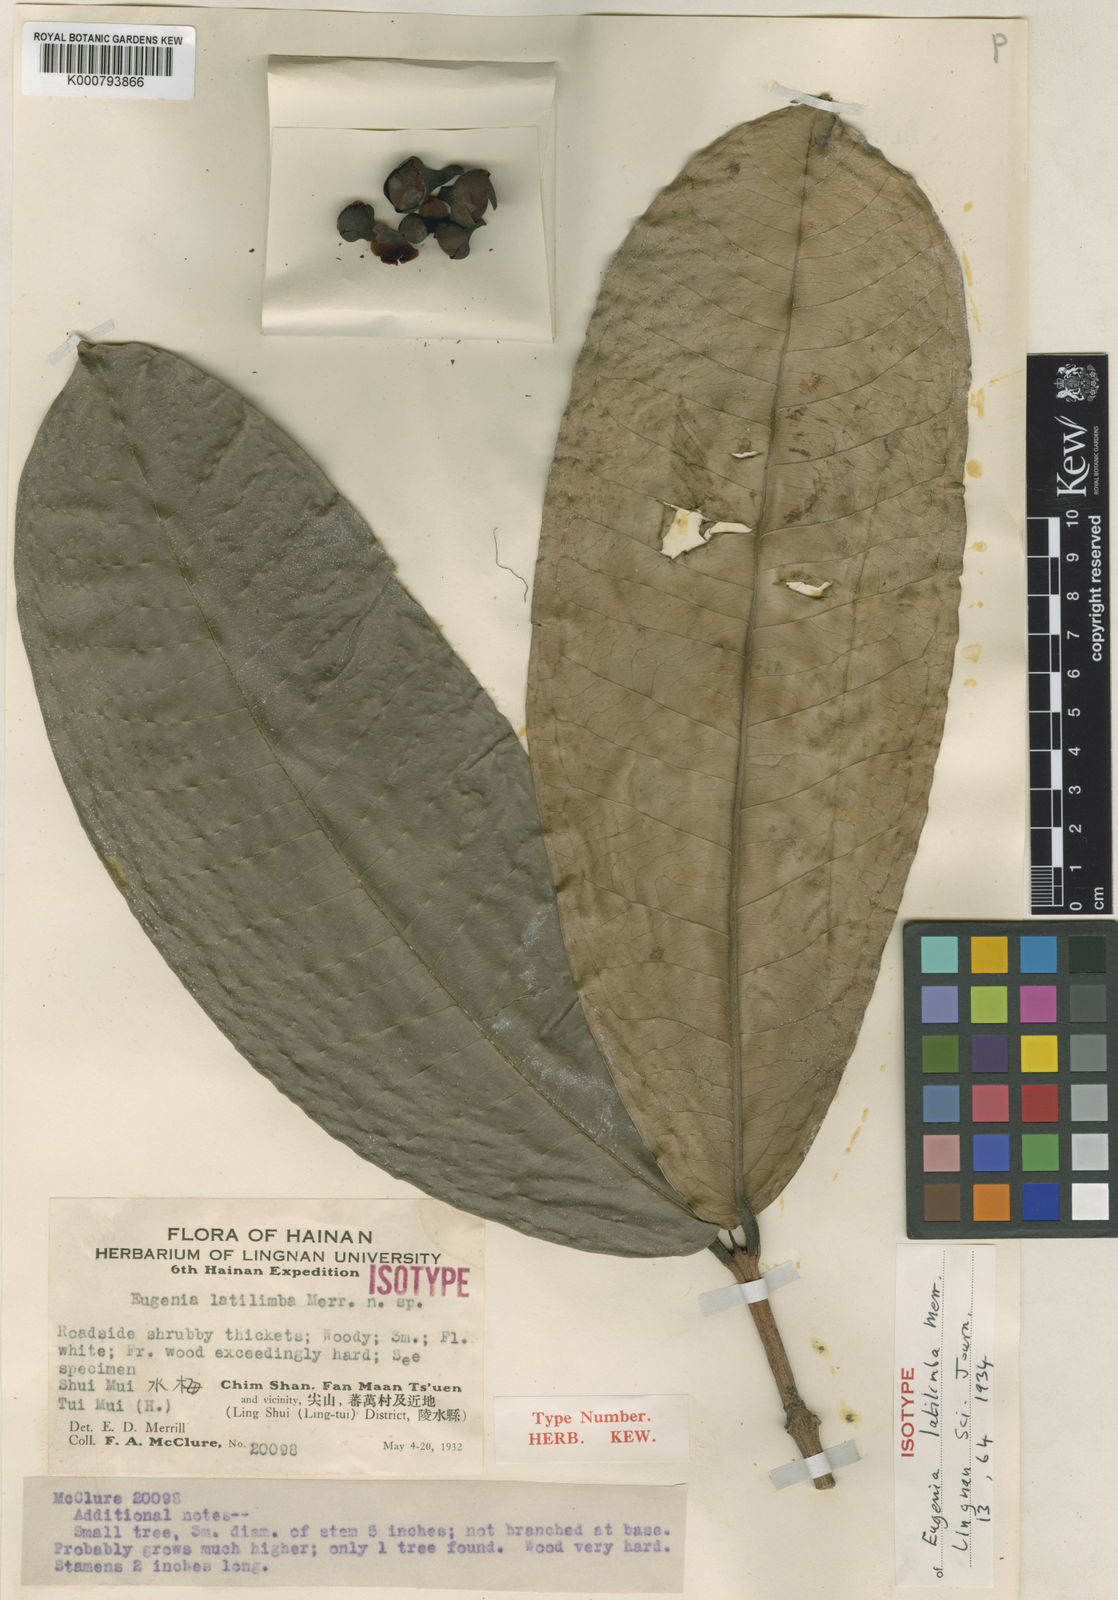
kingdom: Plantae
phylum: Tracheophyta
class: Magnoliopsida
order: Myrtales
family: Myrtaceae
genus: Syzygium
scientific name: Syzygium coarctatum
